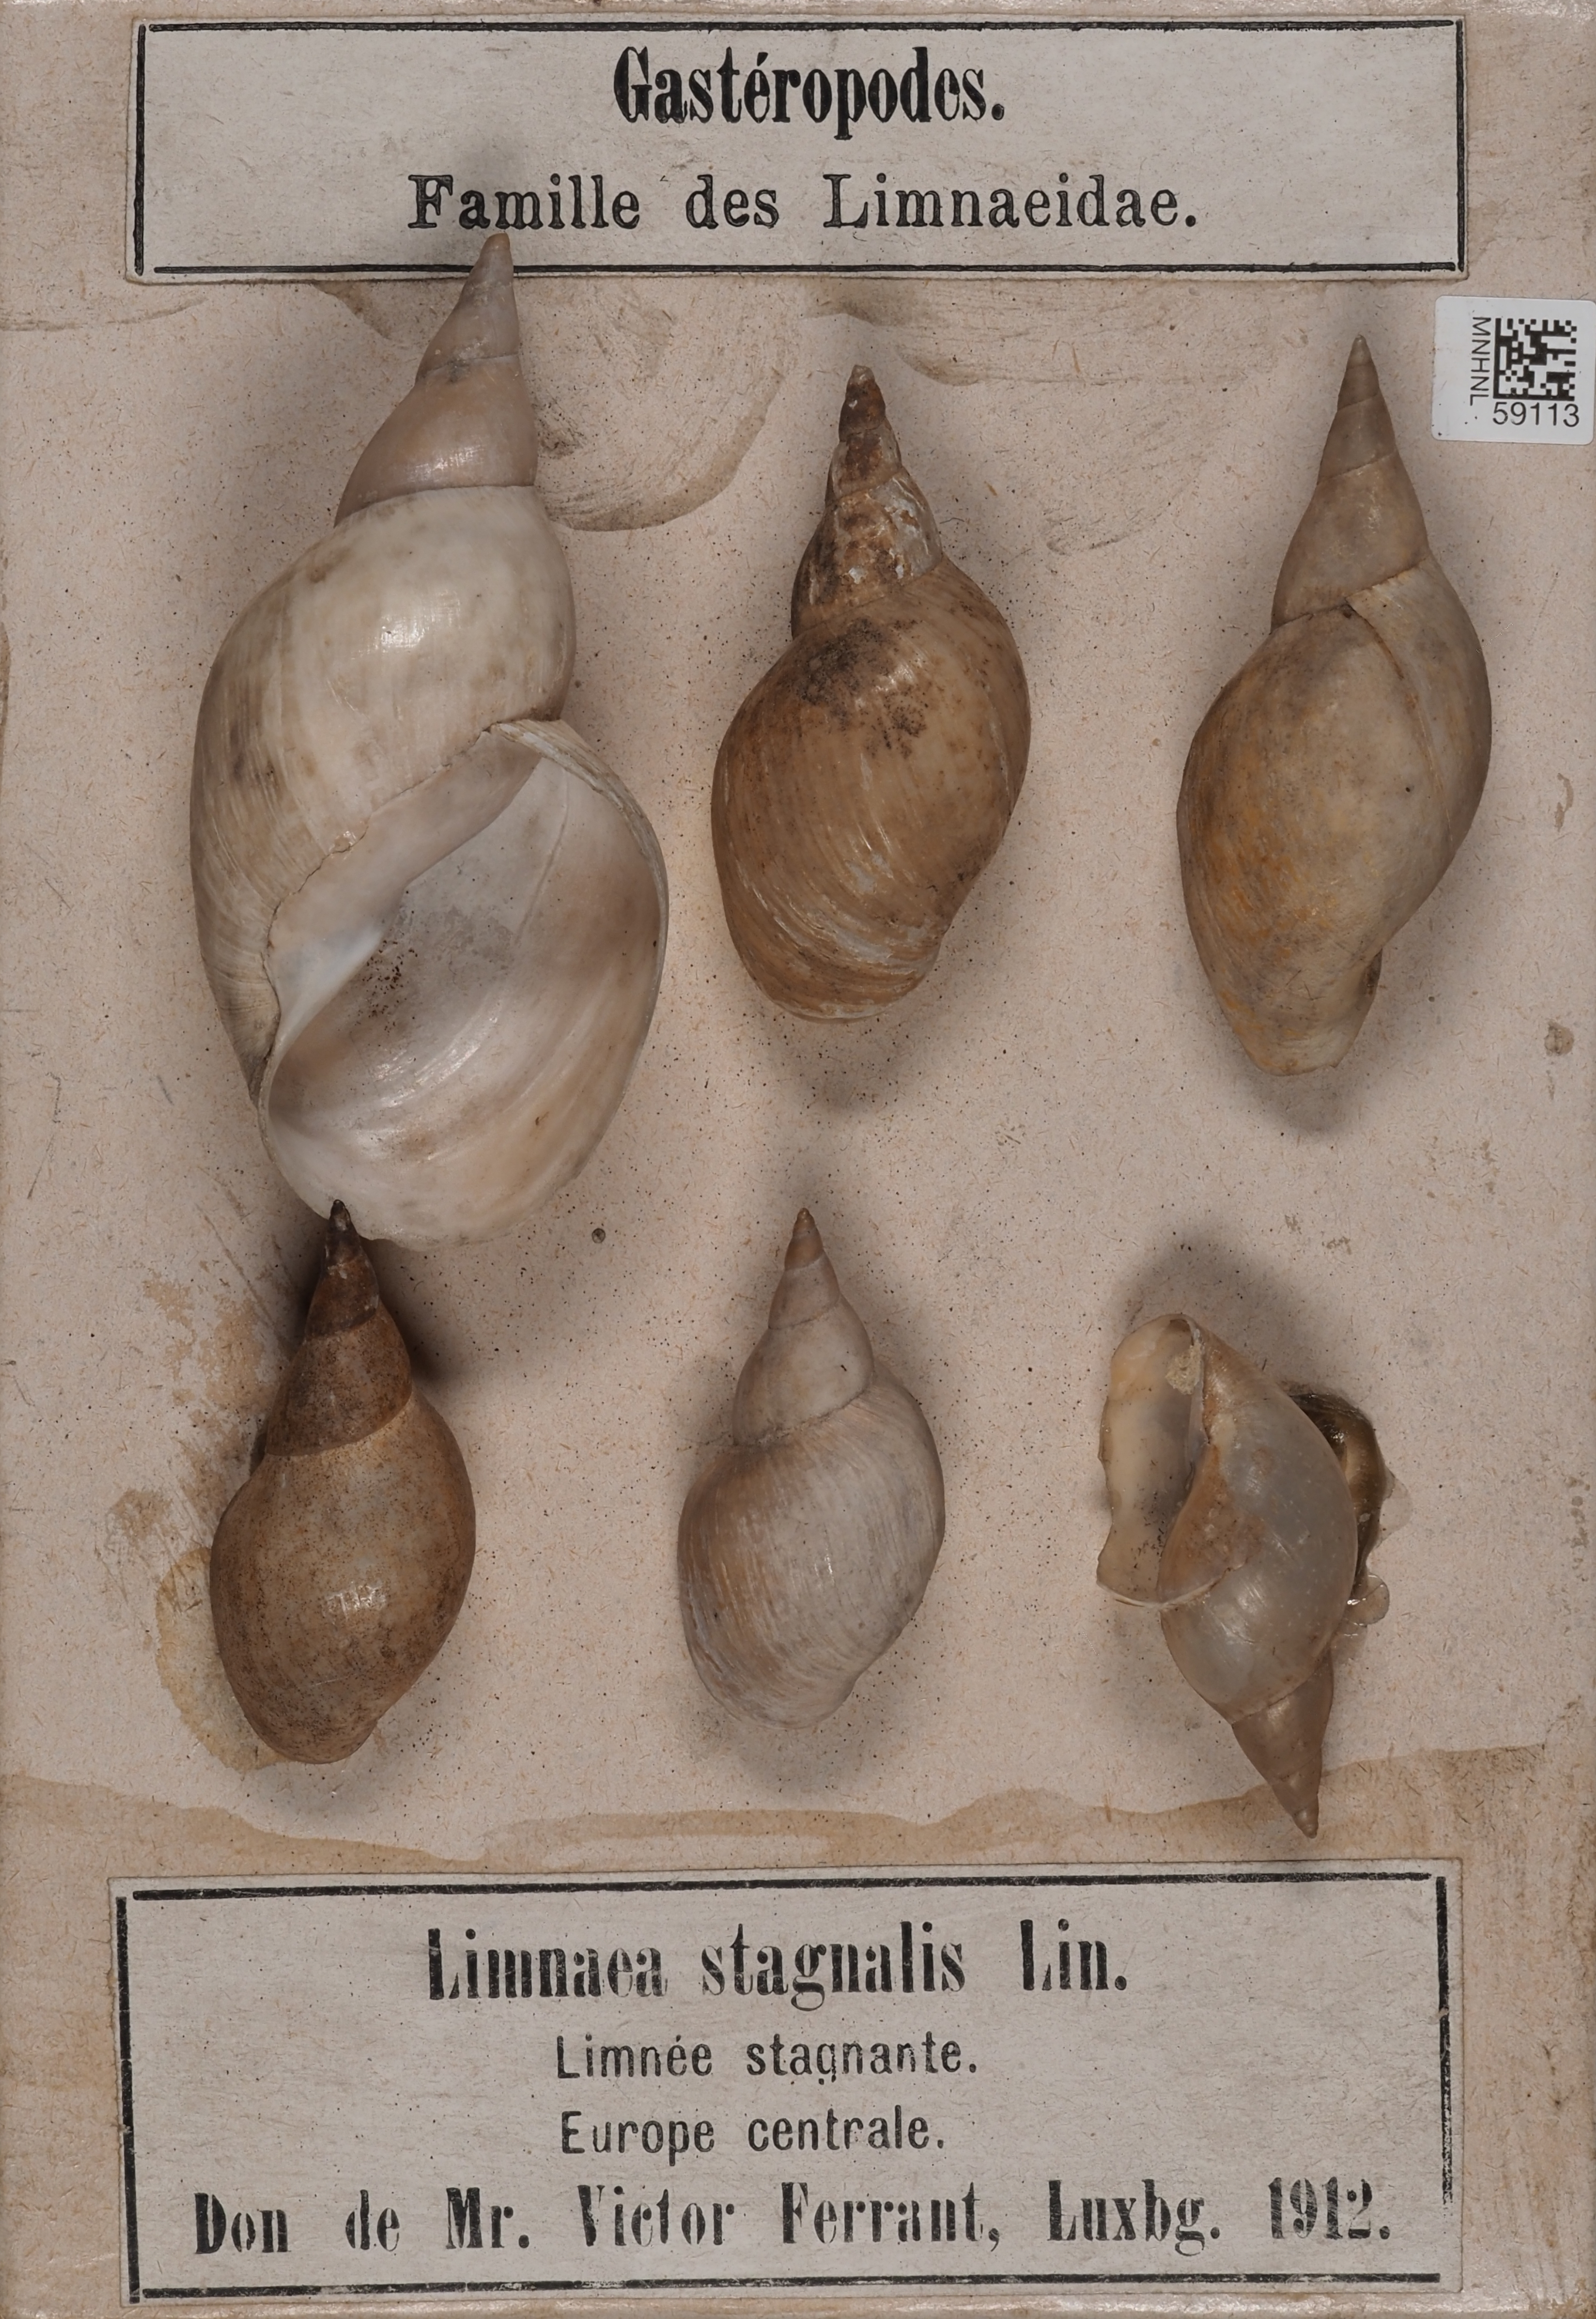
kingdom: Animalia
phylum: Mollusca
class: Gastropoda
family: Lymnaeidae
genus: Lymnaea
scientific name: Lymnaea stagnalis
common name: Great pond snail
